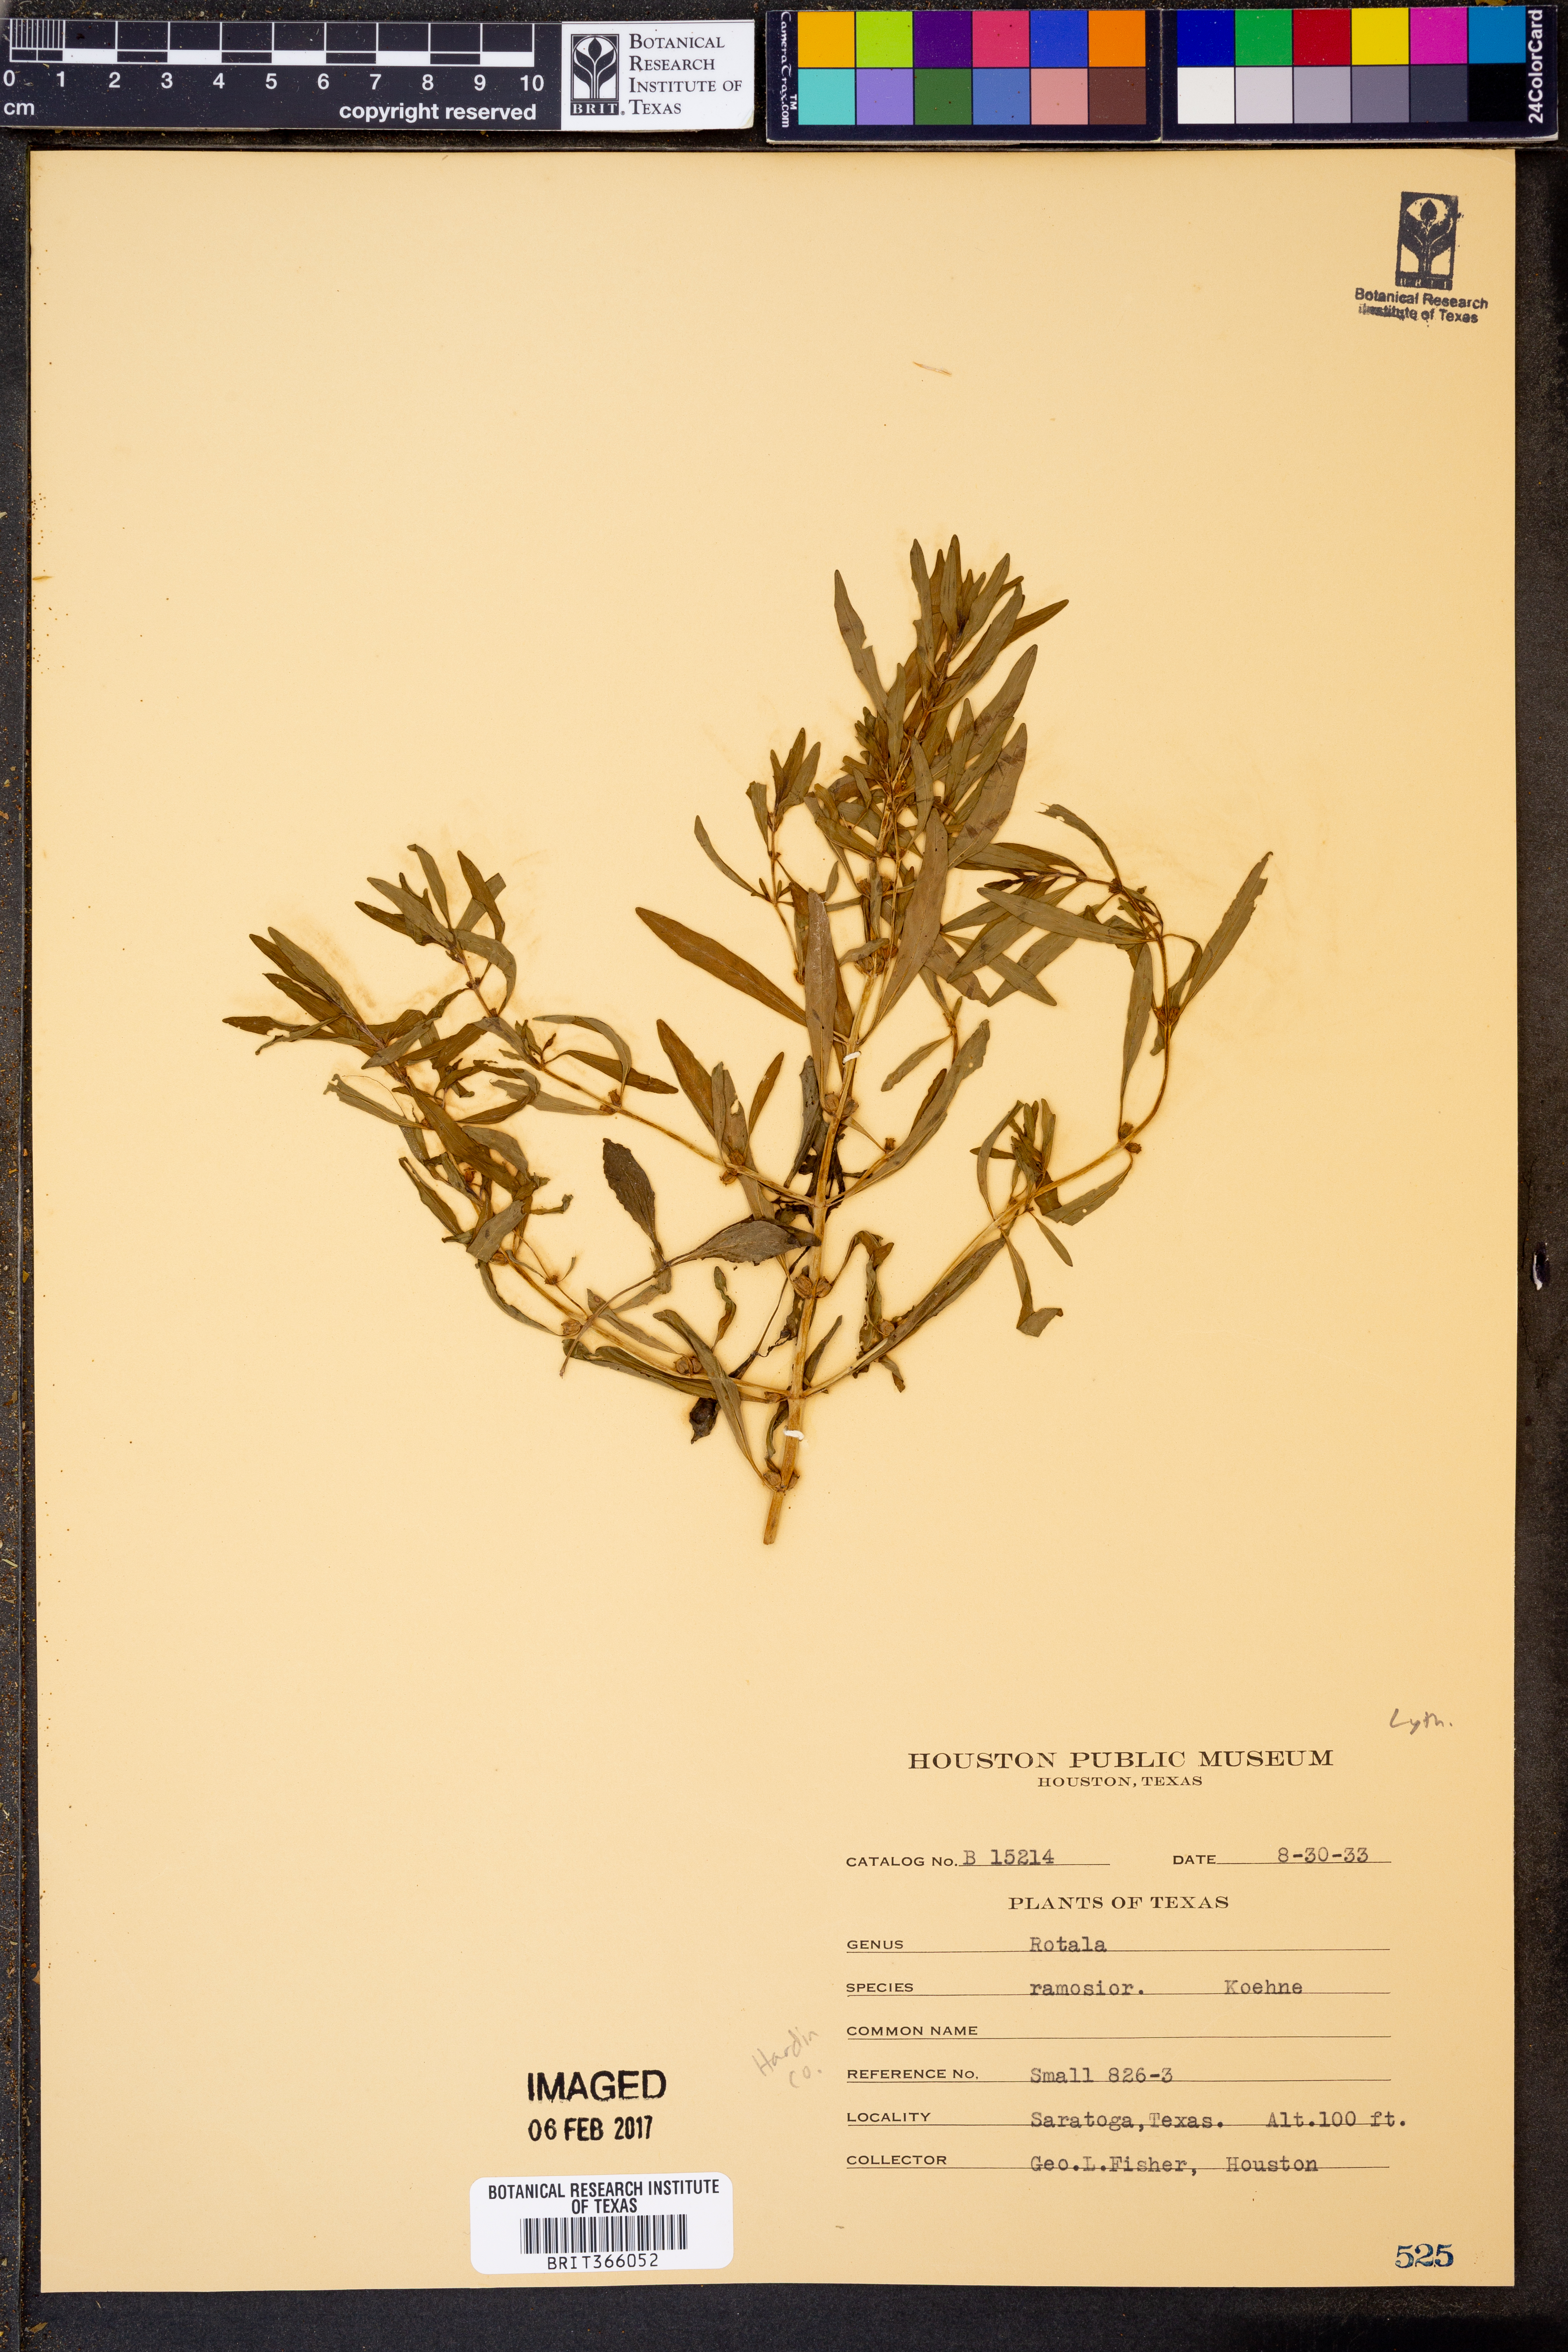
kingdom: Plantae
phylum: Tracheophyta
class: Magnoliopsida
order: Myrtales
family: Lythraceae
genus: Rotala
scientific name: Rotala ramosior
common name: Lowland rotala
